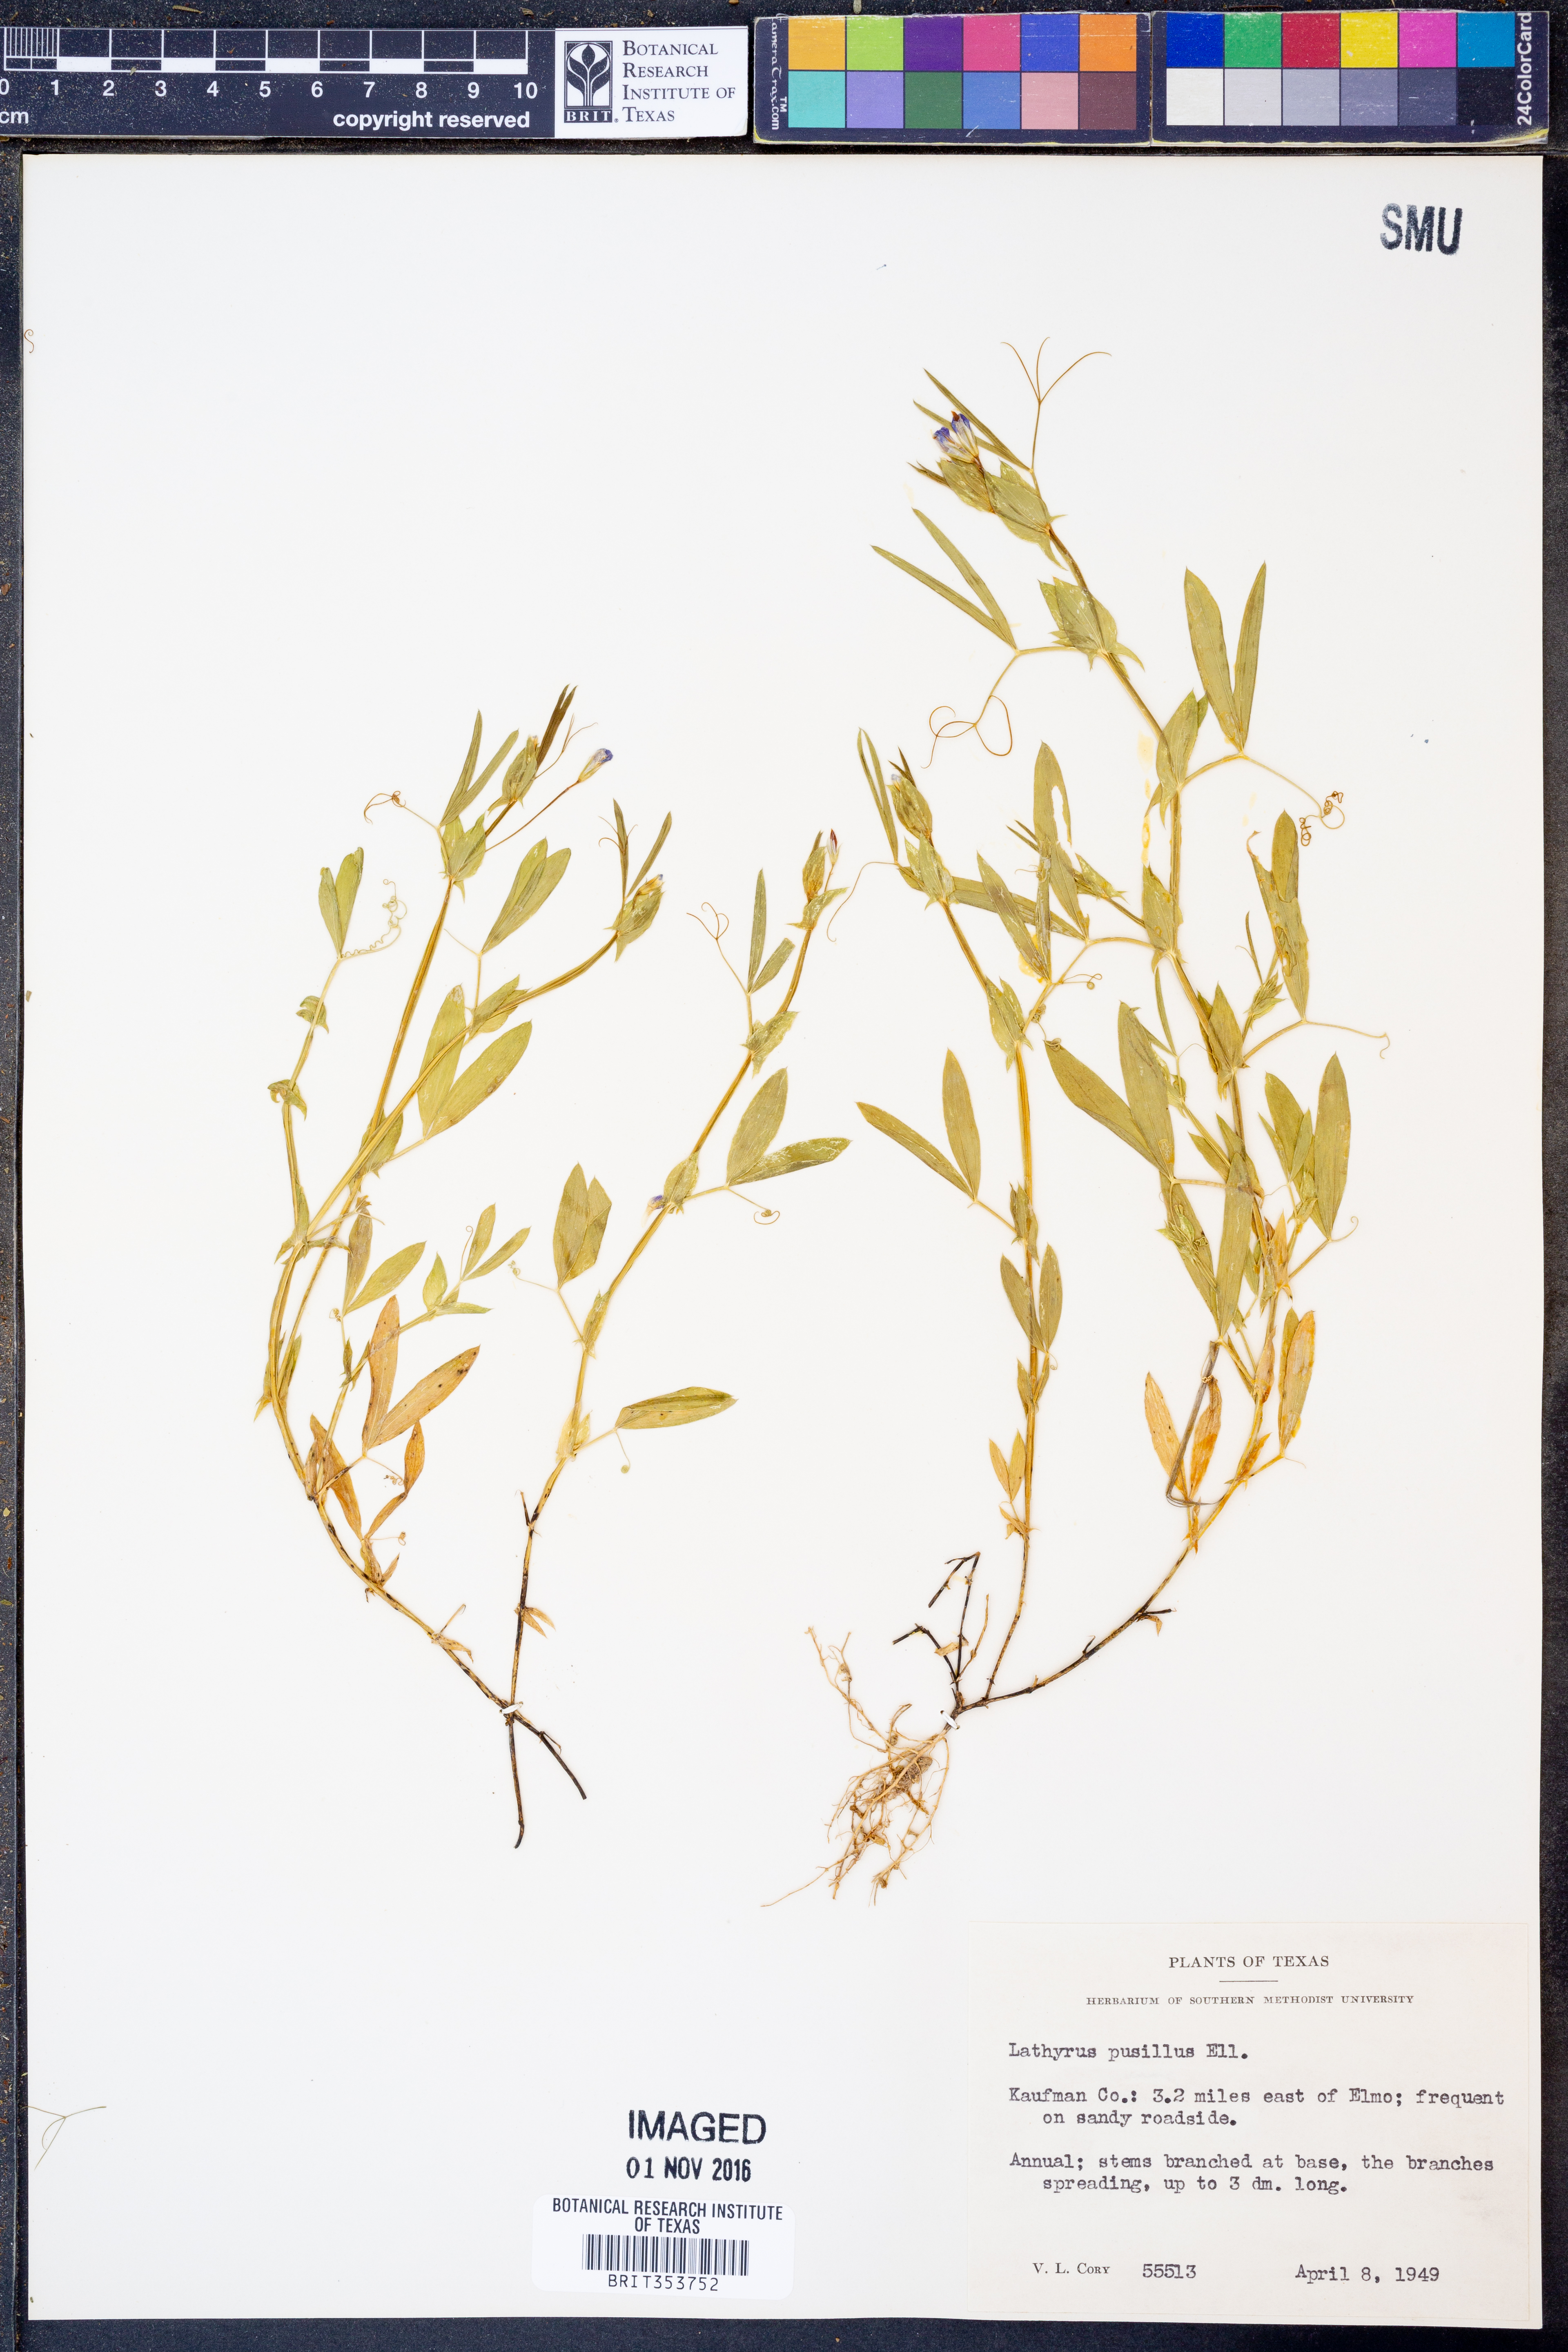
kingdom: Plantae
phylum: Tracheophyta
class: Magnoliopsida
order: Fabales
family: Fabaceae
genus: Lathyrus
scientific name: Lathyrus pusillus
